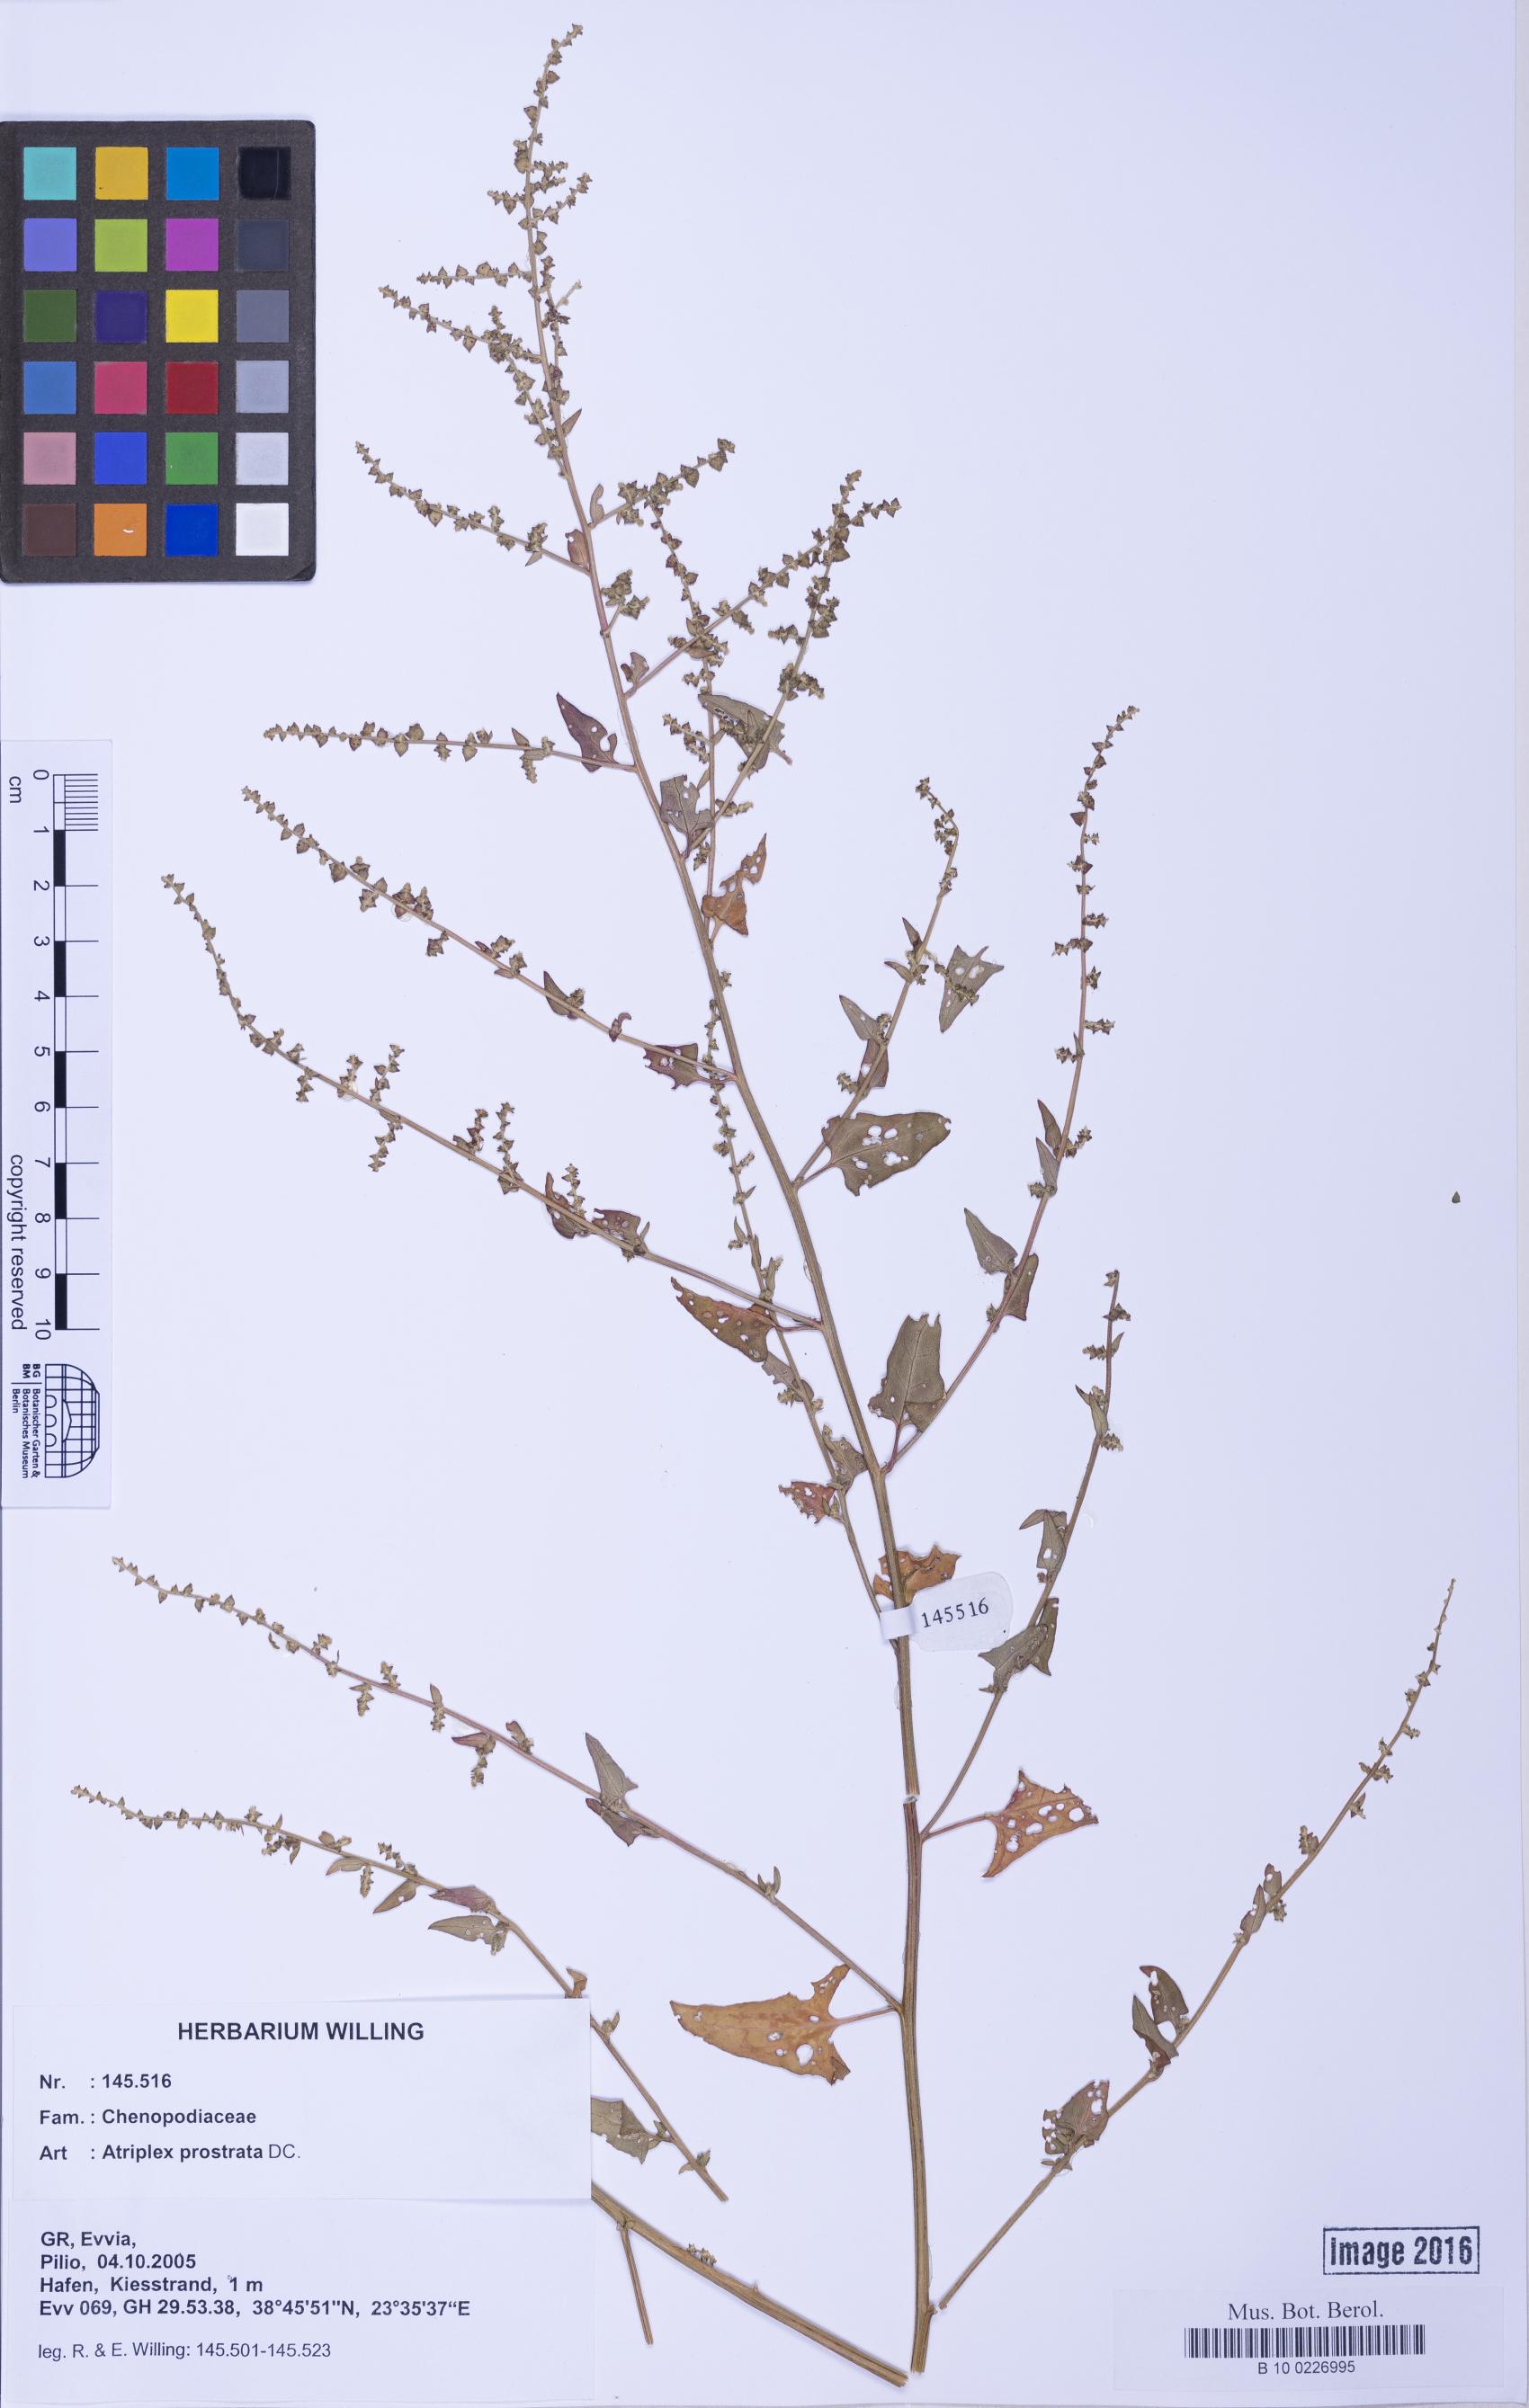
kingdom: Plantae
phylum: Tracheophyta
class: Magnoliopsida
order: Caryophyllales
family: Amaranthaceae
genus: Atriplex
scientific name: Atriplex prostrata
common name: Spear-leaved orache
